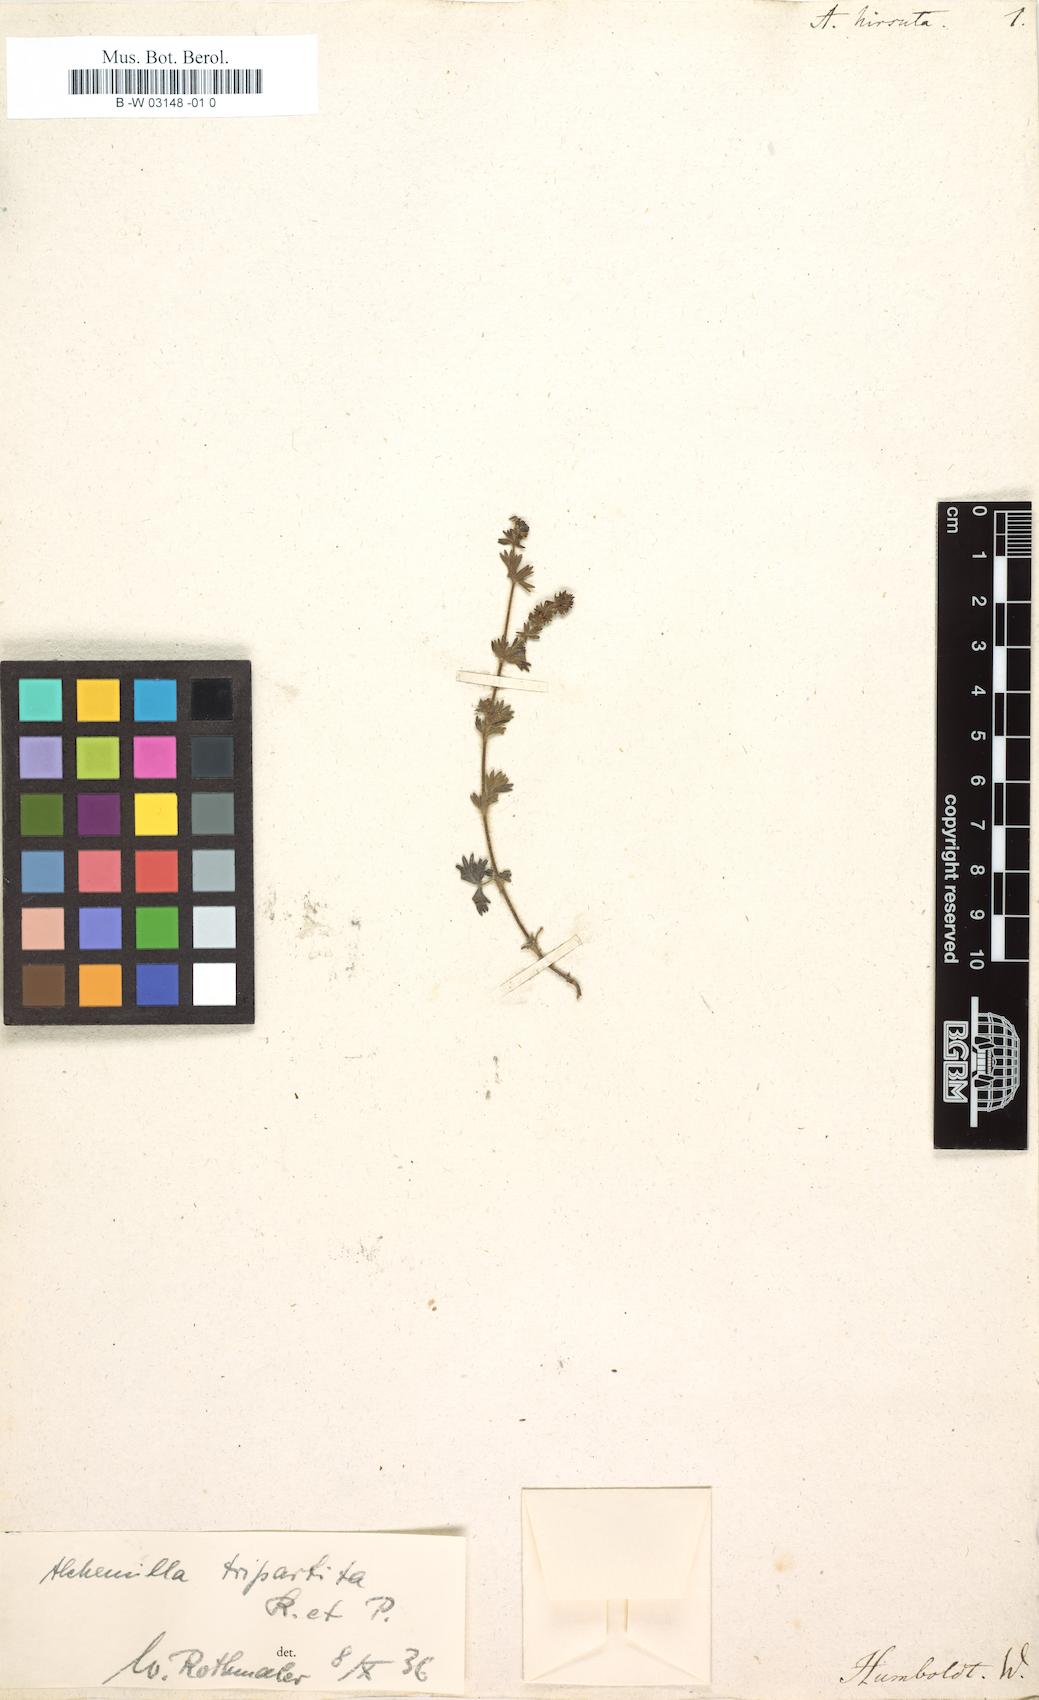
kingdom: Plantae
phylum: Tracheophyta
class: Magnoliopsida
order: Rosales
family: Rosaceae
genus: Lachemilla
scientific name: Lachemilla aphanoides
